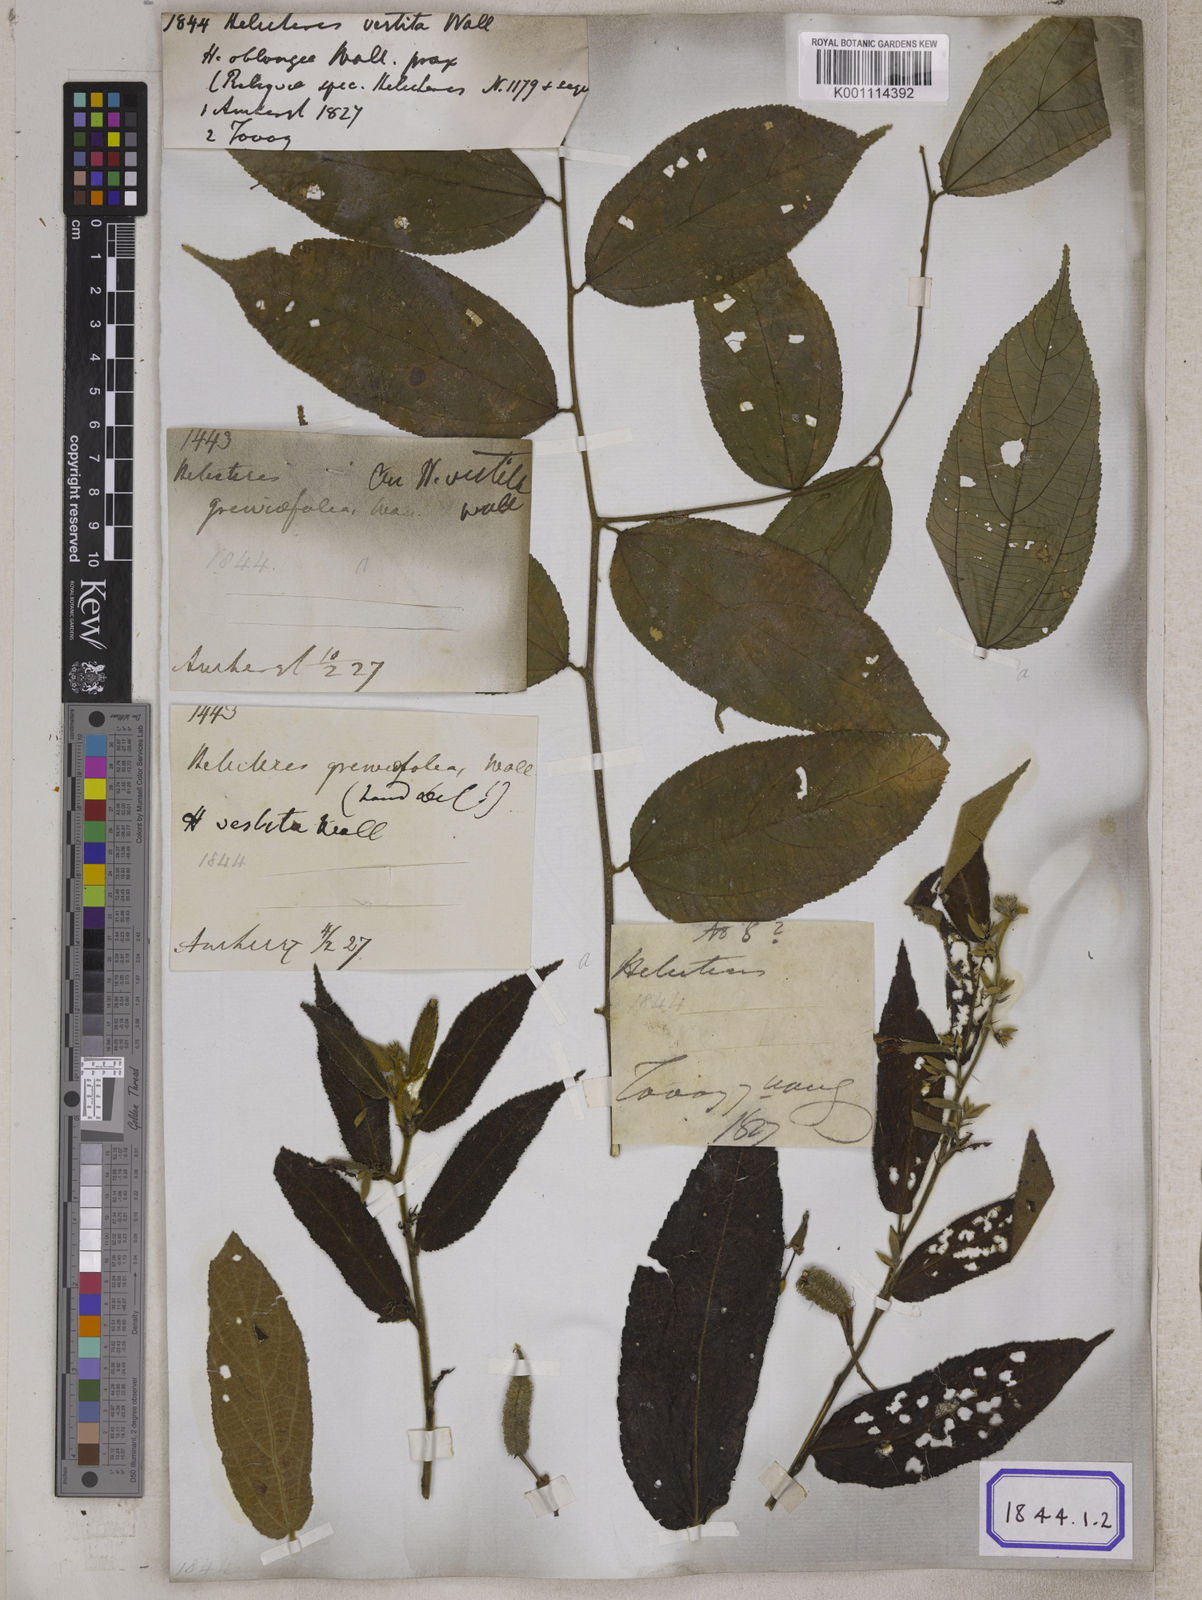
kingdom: Plantae
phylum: Tracheophyta
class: Magnoliopsida
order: Malvales
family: Malvaceae
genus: Helicteres
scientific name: Helicteres hirsuta
